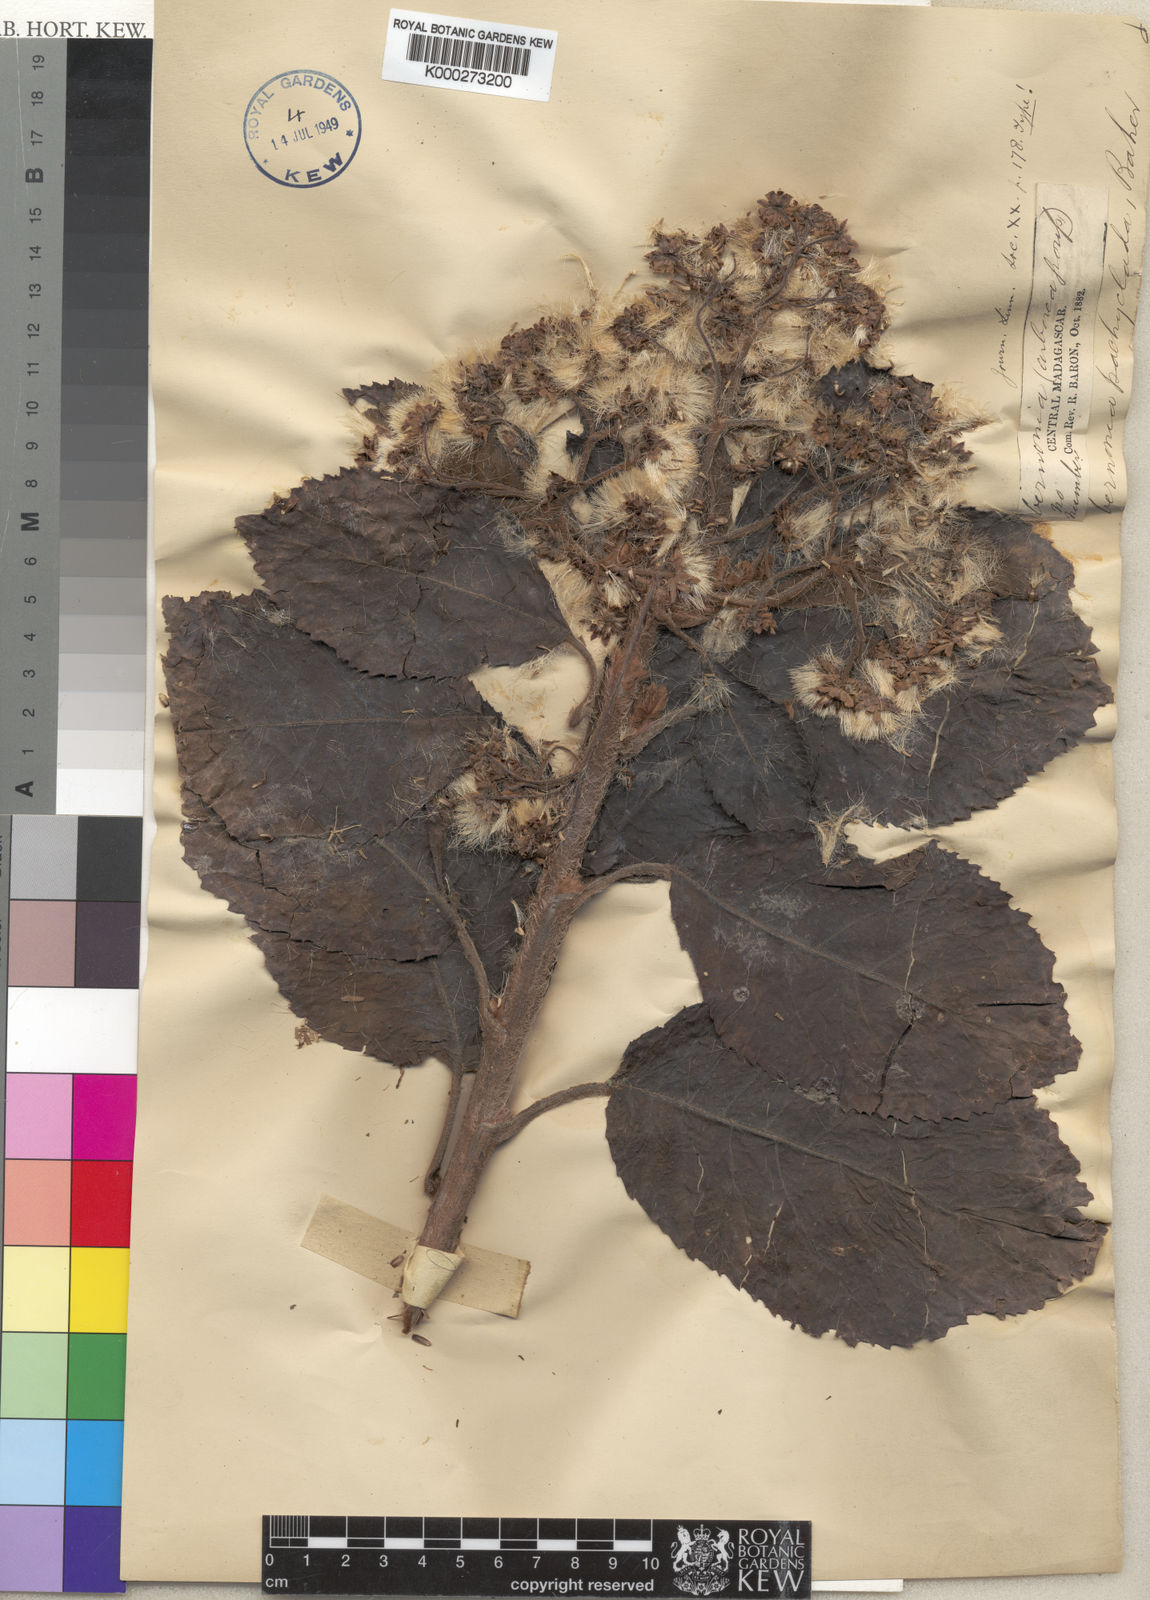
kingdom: Plantae
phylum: Tracheophyta
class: Magnoliopsida
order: Asterales
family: Asteraceae
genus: Vernonia
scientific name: Vernonia pachyclada
